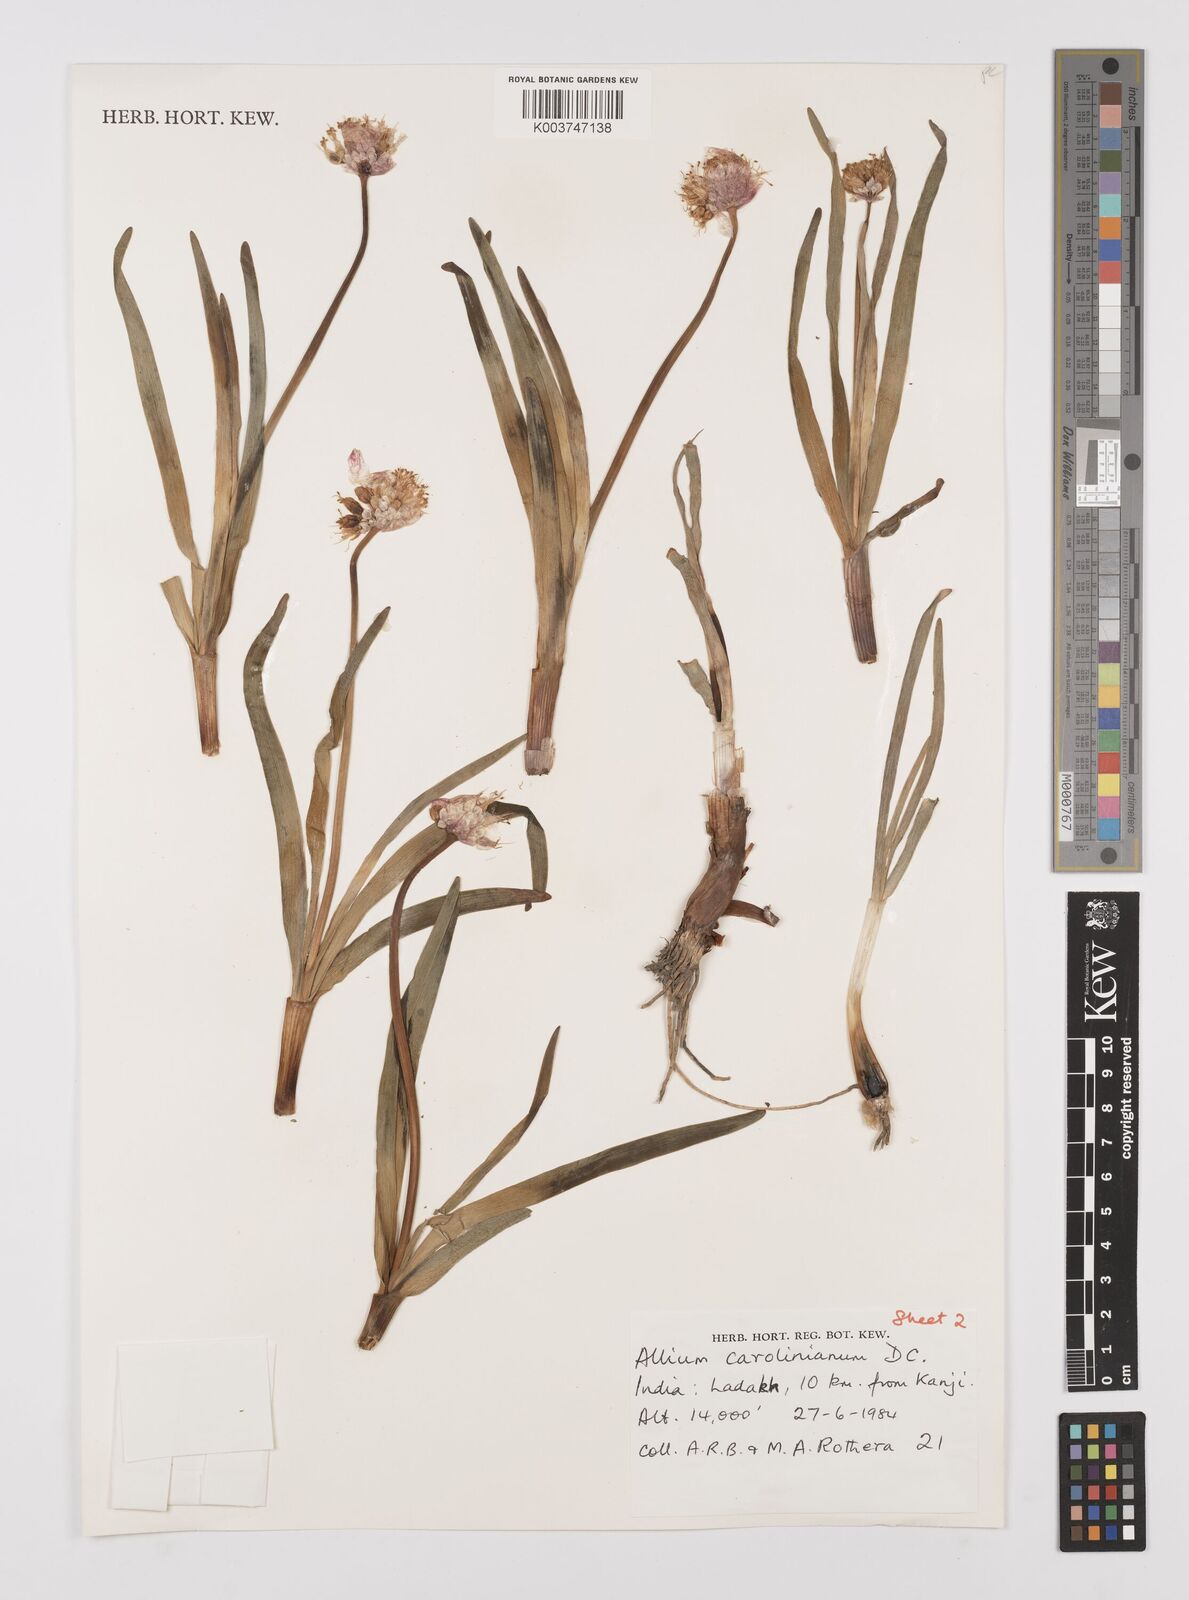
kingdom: Plantae
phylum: Tracheophyta
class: Liliopsida
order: Asparagales
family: Amaryllidaceae
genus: Allium
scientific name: Allium carolinianum
